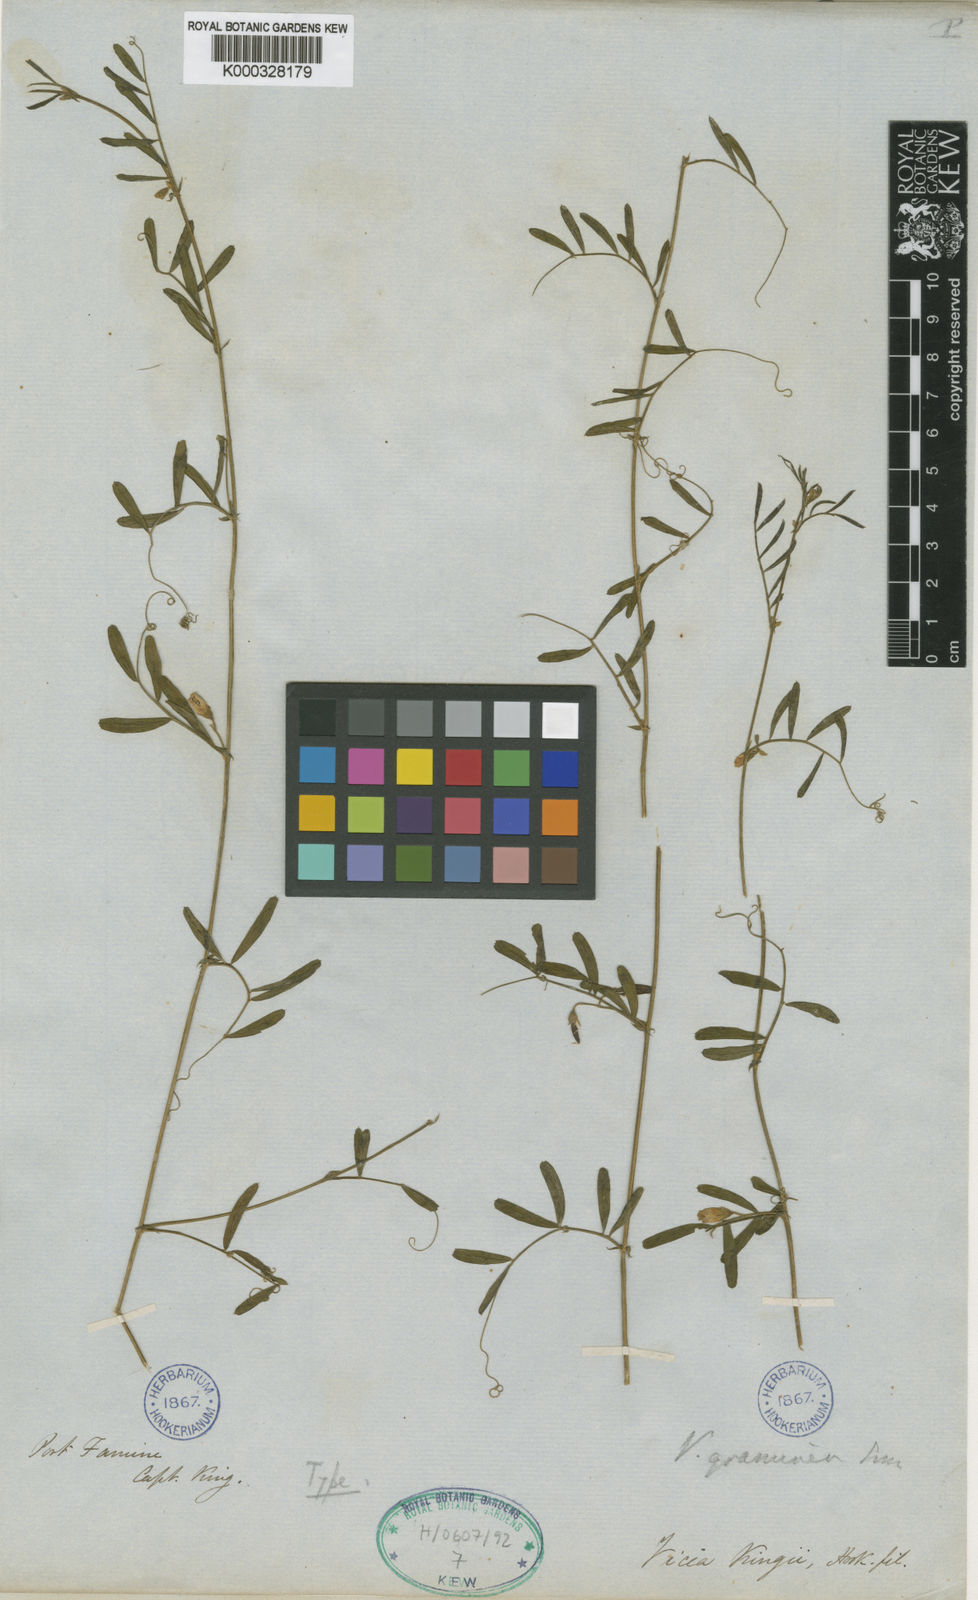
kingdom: Plantae
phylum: Tracheophyta
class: Magnoliopsida
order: Fabales
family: Fabaceae
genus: Vicia
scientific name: Vicia graminea
